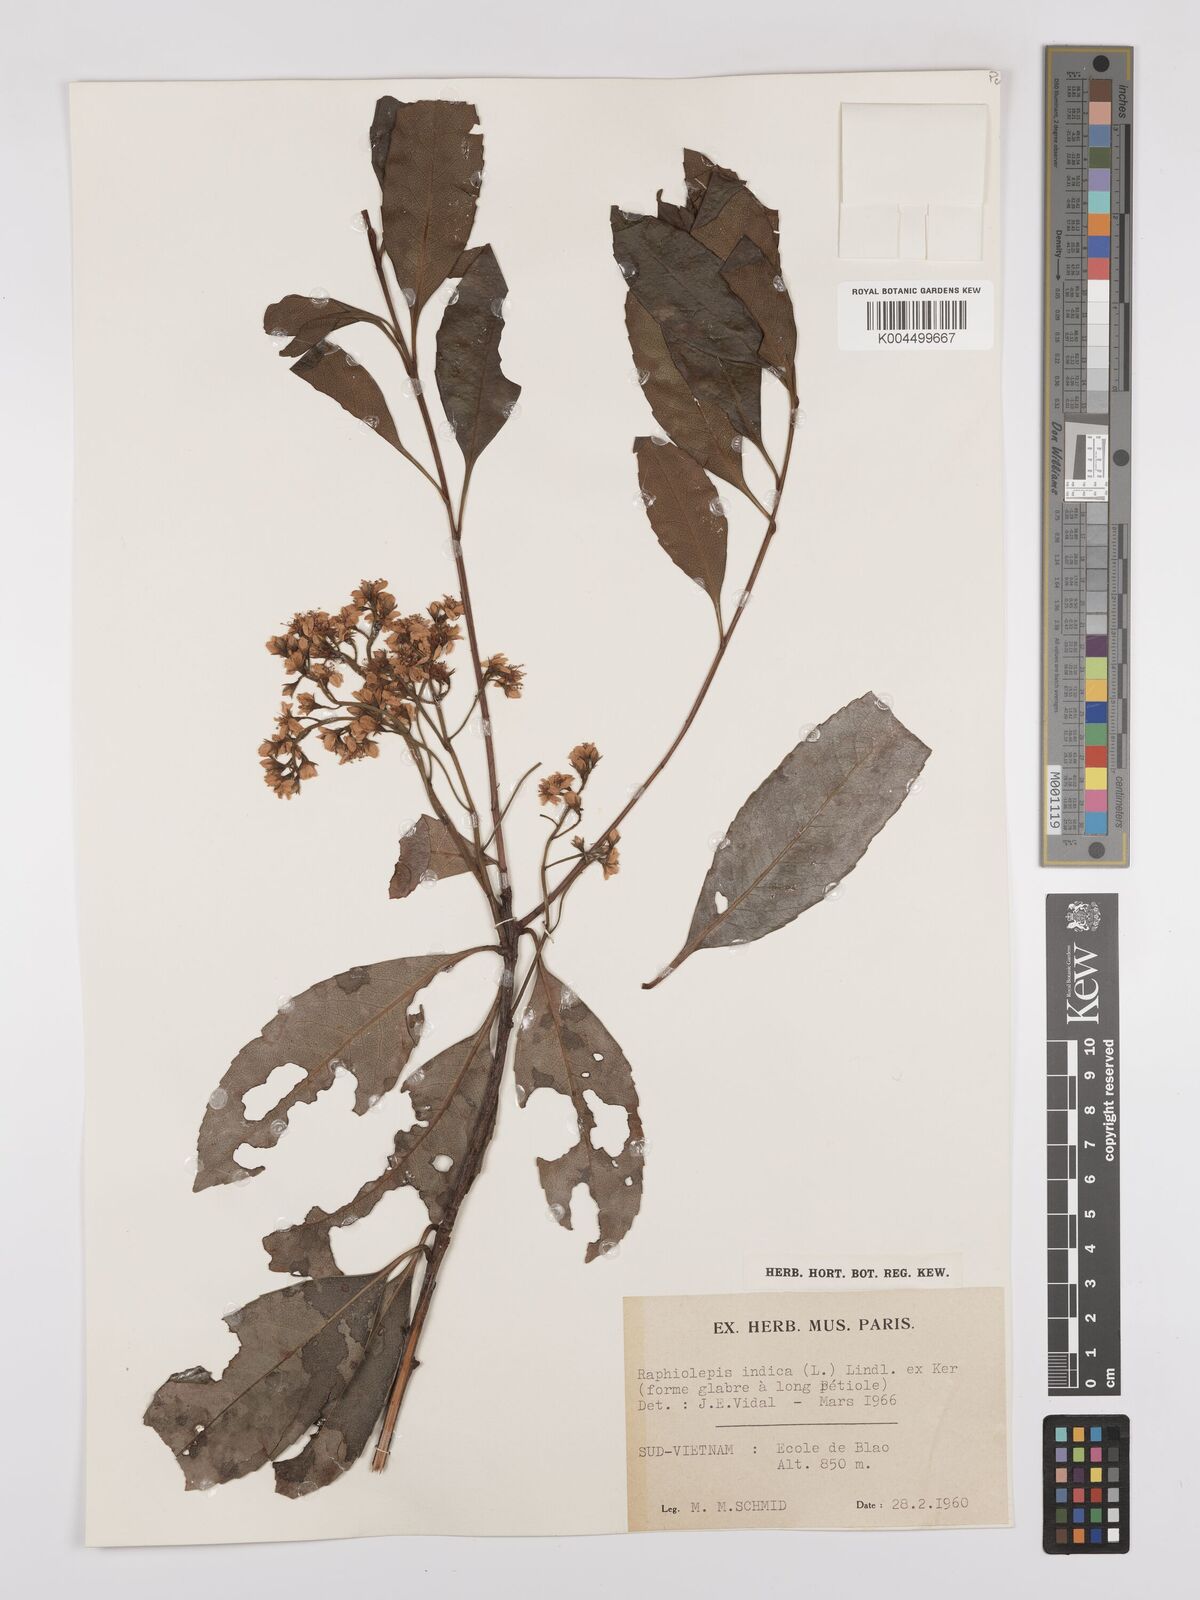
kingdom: Plantae
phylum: Tracheophyta
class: Magnoliopsida
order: Rosales
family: Rosaceae
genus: Rhaphiolepis
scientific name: Rhaphiolepis indica
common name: India-hawthorn
